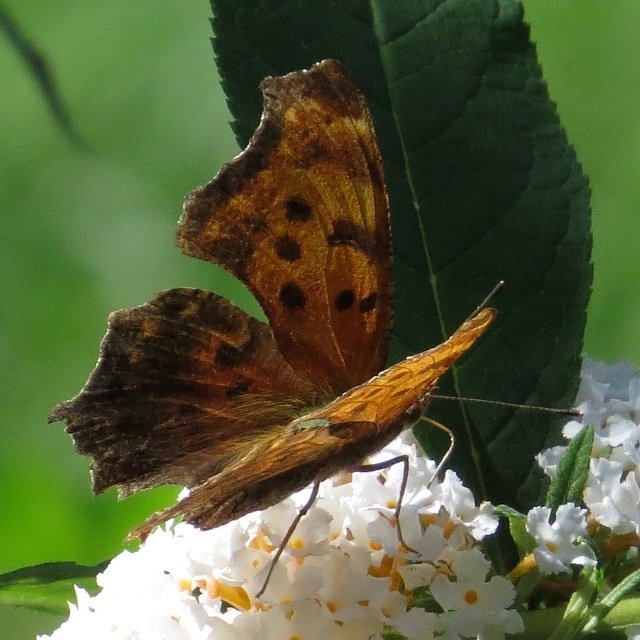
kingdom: Animalia
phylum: Arthropoda
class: Insecta
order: Lepidoptera
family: Nymphalidae
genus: Polygonia
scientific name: Polygonia comma
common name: Eastern Comma
